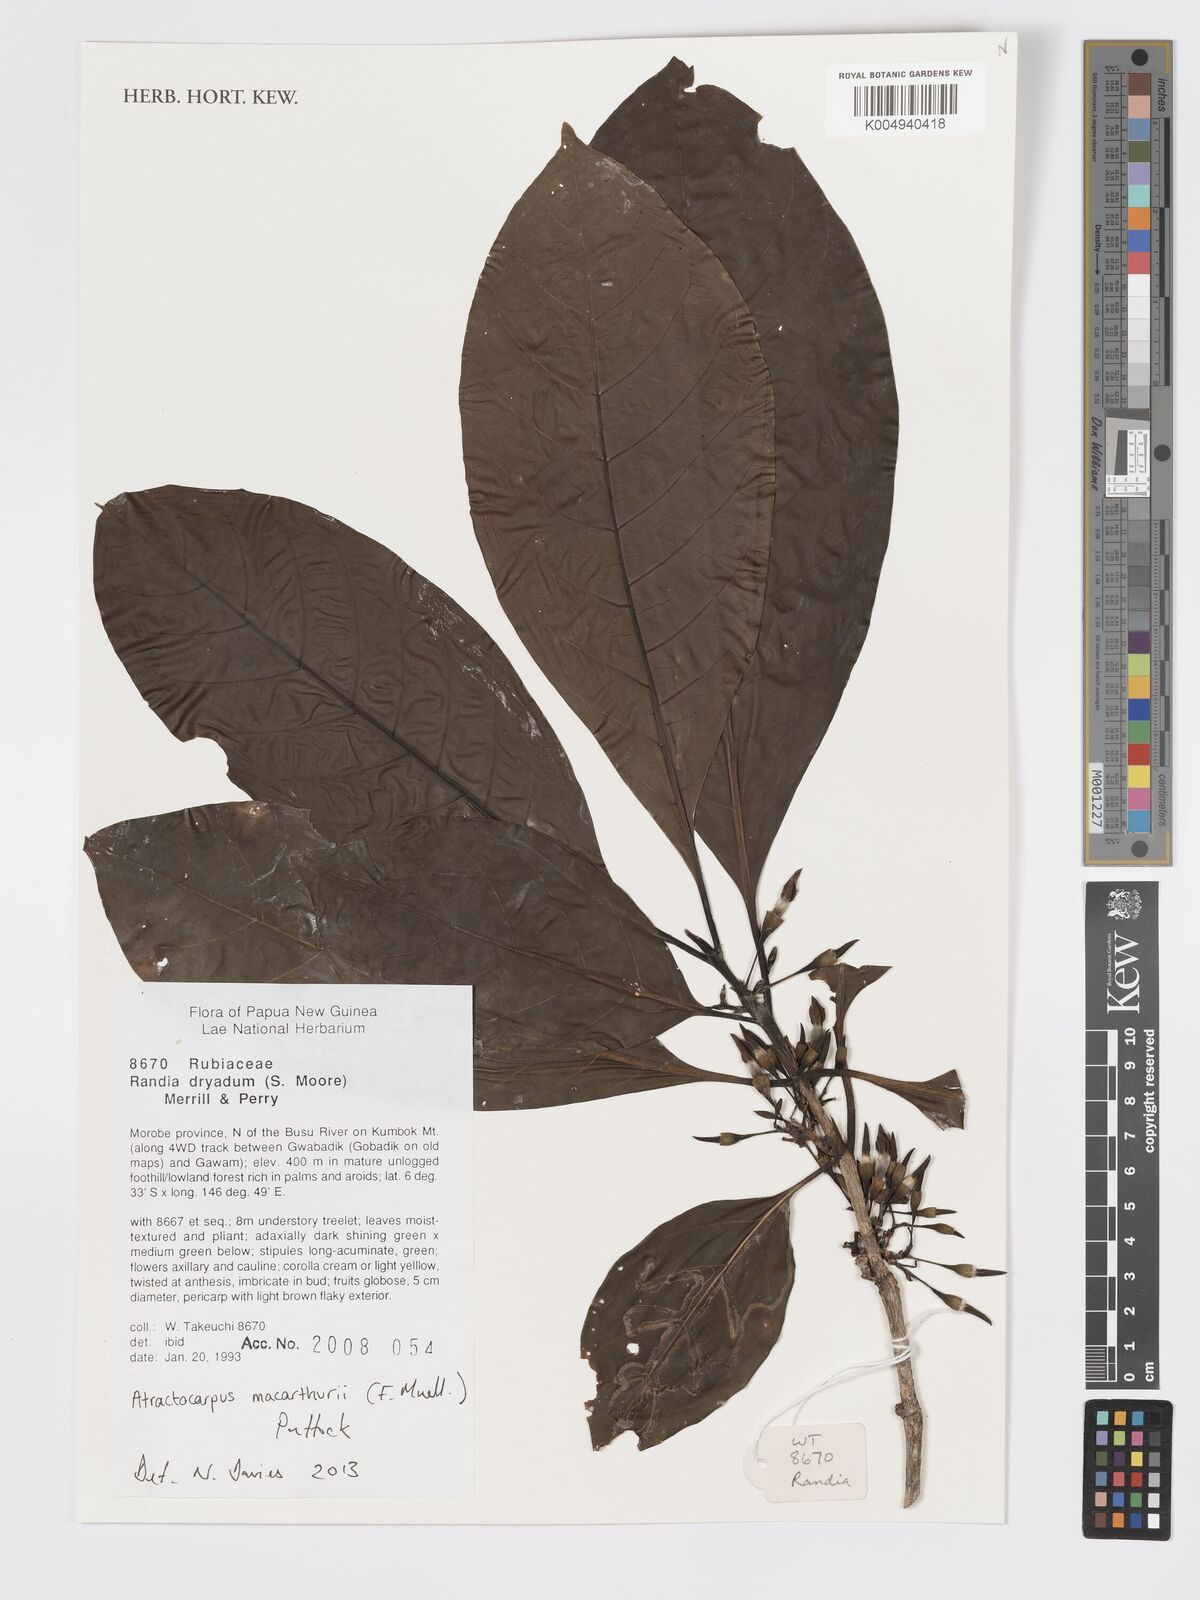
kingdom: Plantae
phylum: Tracheophyta
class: Magnoliopsida
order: Gentianales
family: Rubiaceae
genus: Atractocarpus
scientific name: Atractocarpus macarthurii
